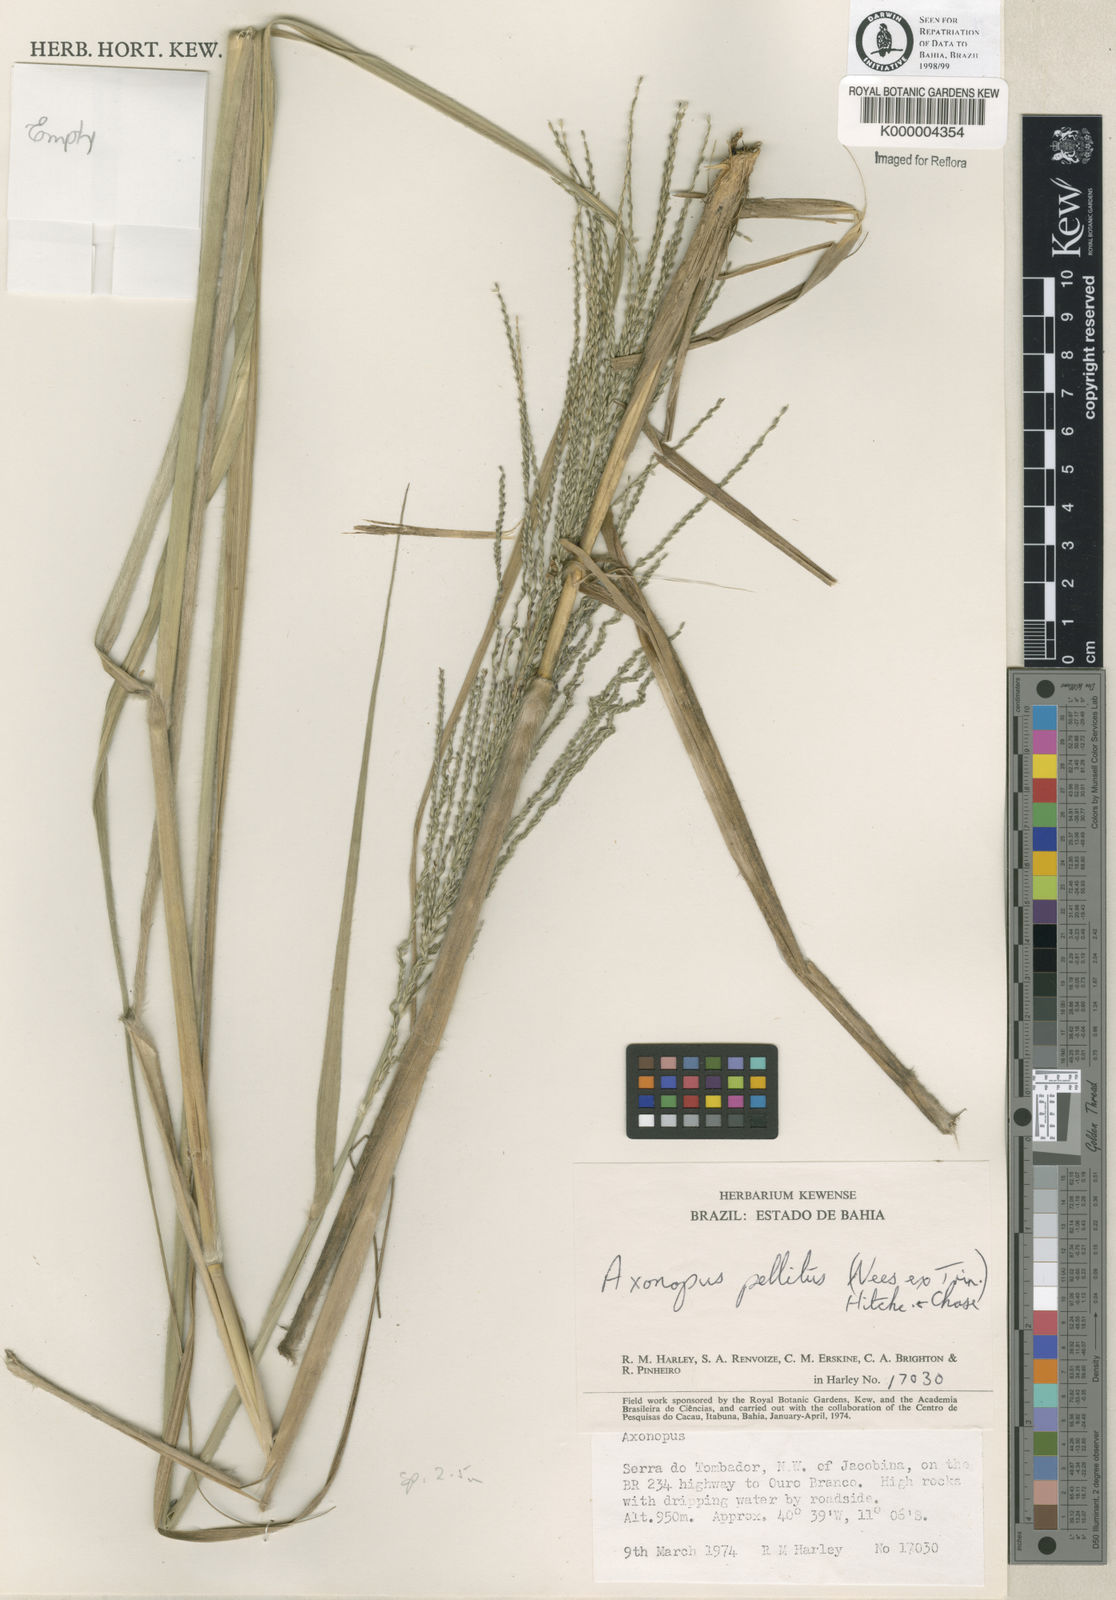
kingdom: Plantae
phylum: Tracheophyta
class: Liliopsida
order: Poales
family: Poaceae
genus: Axonopus
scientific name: Axonopus siccus
